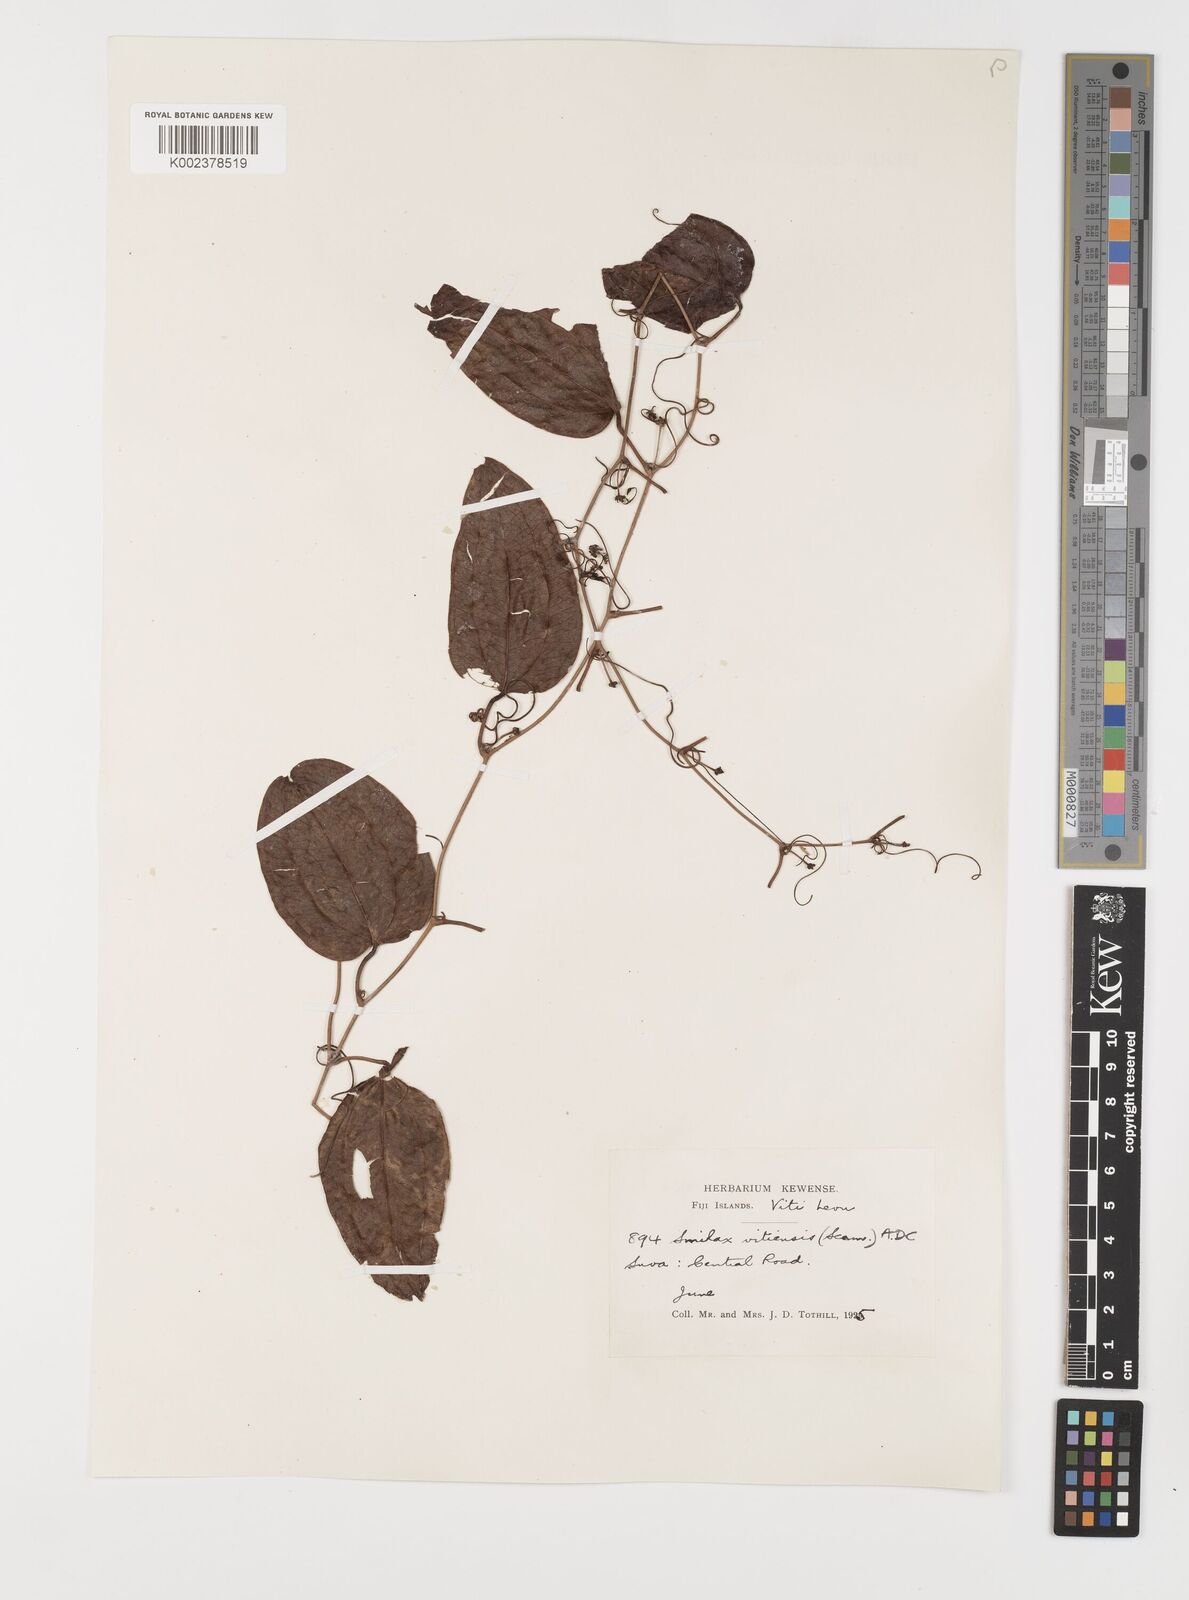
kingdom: Plantae
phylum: Tracheophyta
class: Liliopsida
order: Liliales
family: Smilacaceae
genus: Smilax
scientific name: Smilax vitiensis
